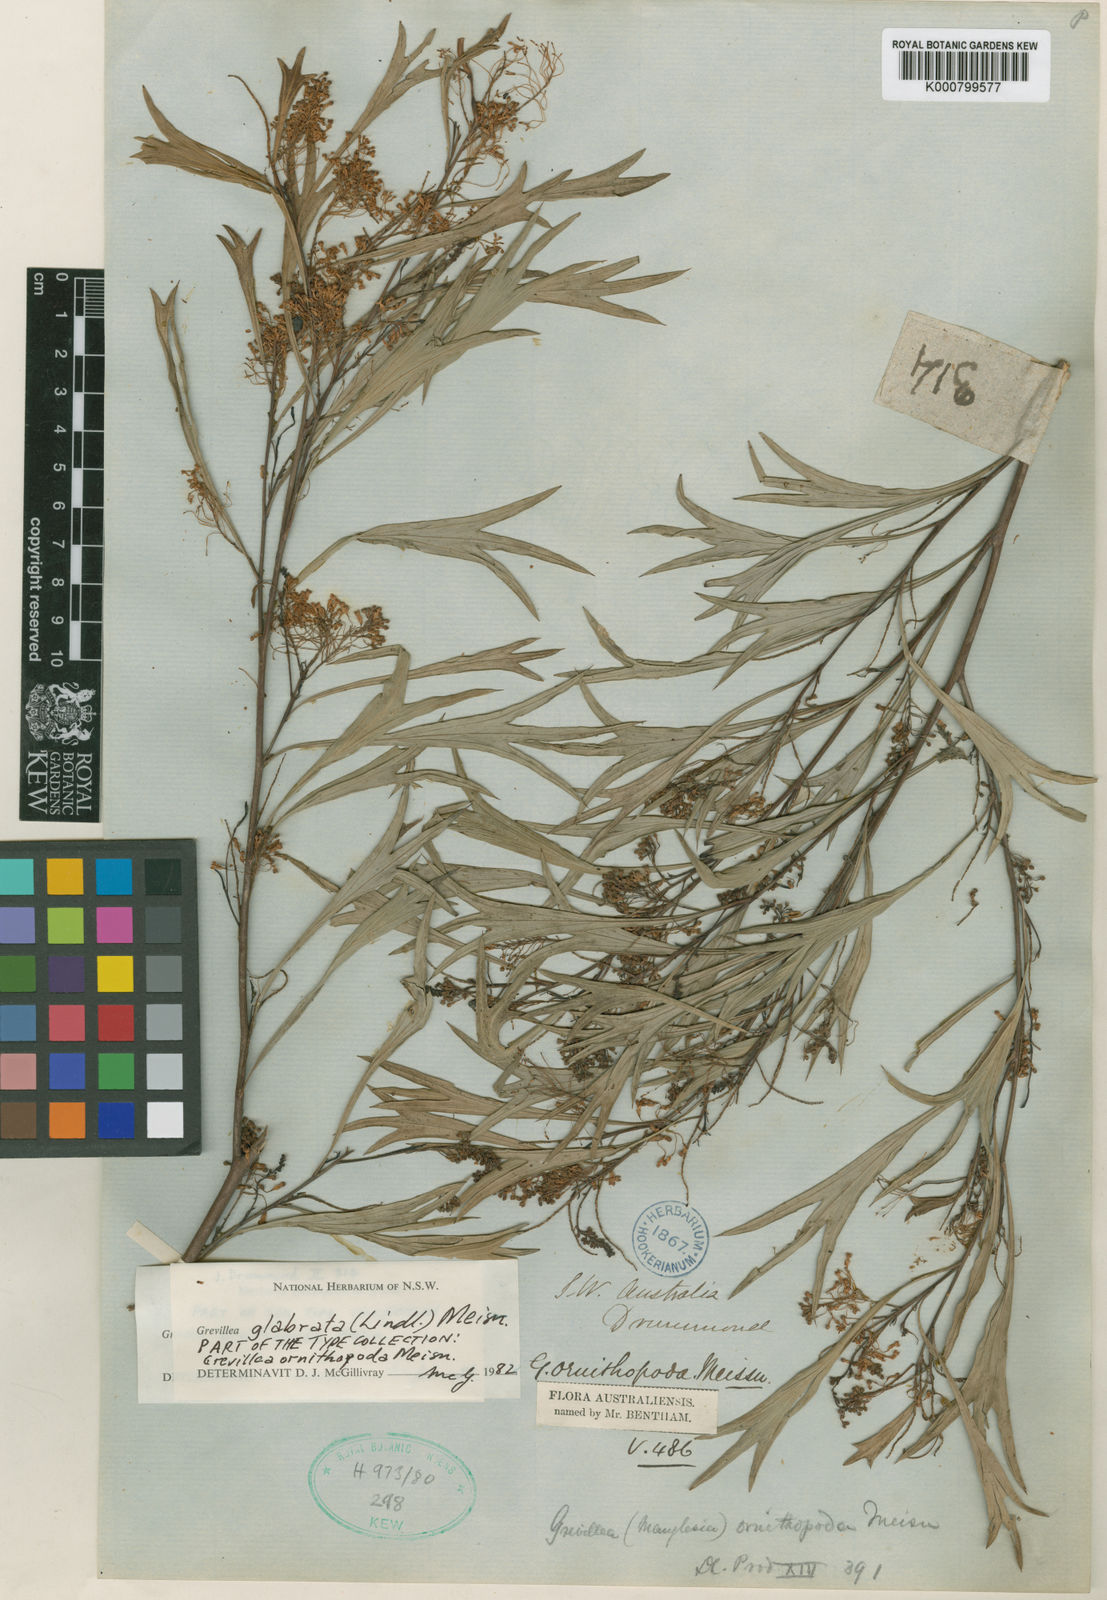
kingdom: Plantae
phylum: Tracheophyta
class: Magnoliopsida
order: Proteales
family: Proteaceae
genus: Grevillea
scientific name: Grevillea manglesii
